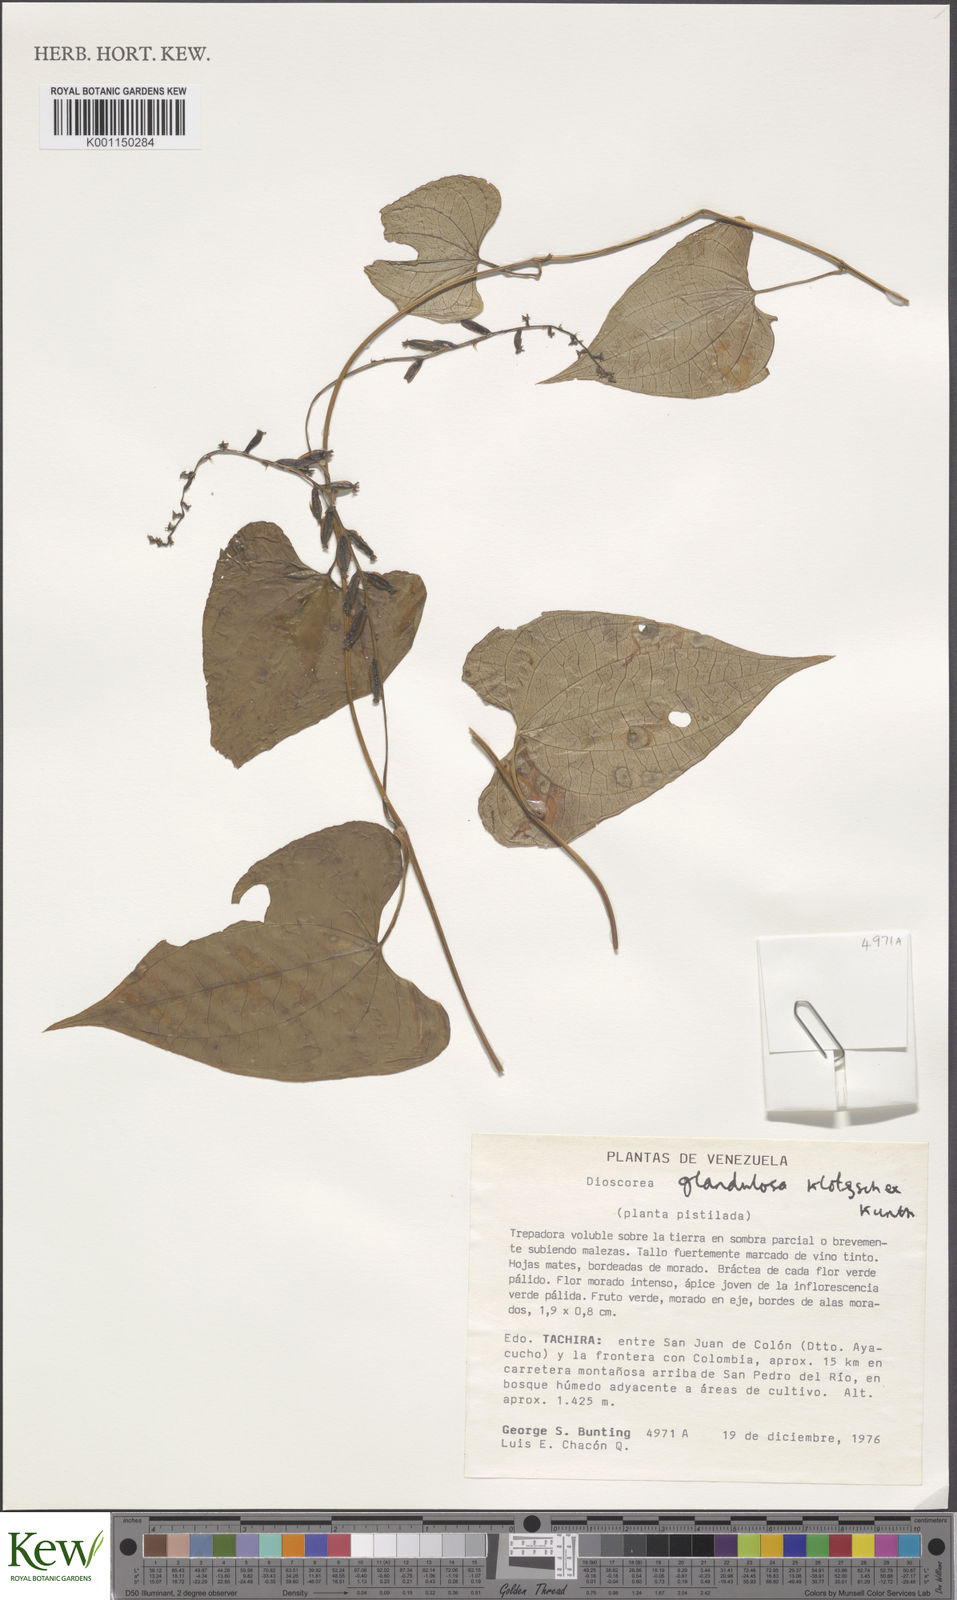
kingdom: Plantae
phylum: Tracheophyta
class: Liliopsida
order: Dioscoreales
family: Dioscoreaceae
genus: Dioscorea
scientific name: Dioscorea glandulosa
